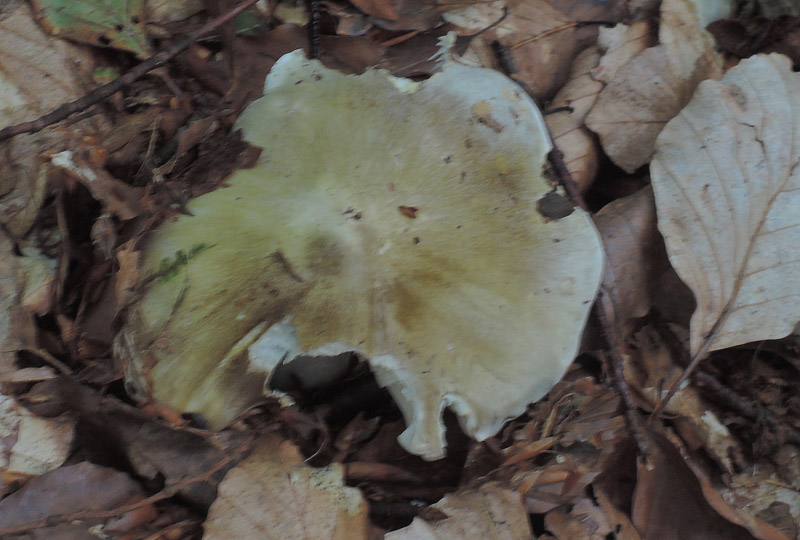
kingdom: Fungi
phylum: Basidiomycota
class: Agaricomycetes
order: Agaricales
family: Tricholomataceae
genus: Tricholoma
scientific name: Tricholoma umbonatum
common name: puklet ridderhat
